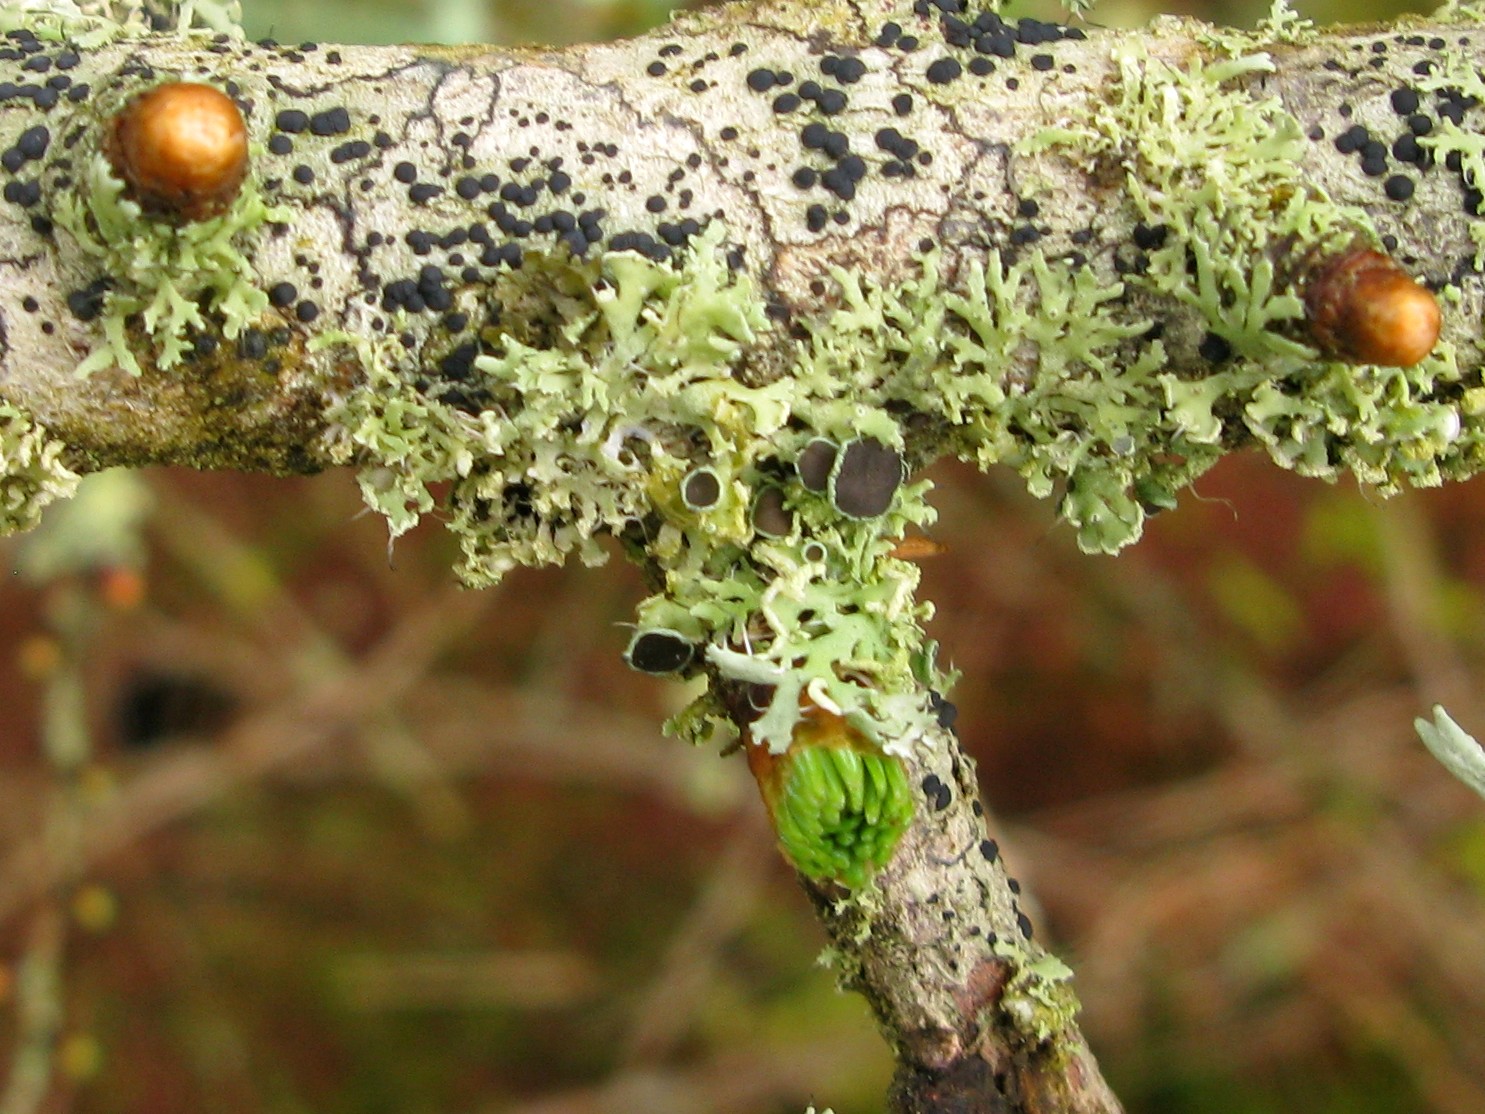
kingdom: Fungi
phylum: Ascomycota
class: Lecanoromycetes
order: Caliciales
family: Physciaceae
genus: Physcia
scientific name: Physcia tenella
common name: spæd rosetlav
